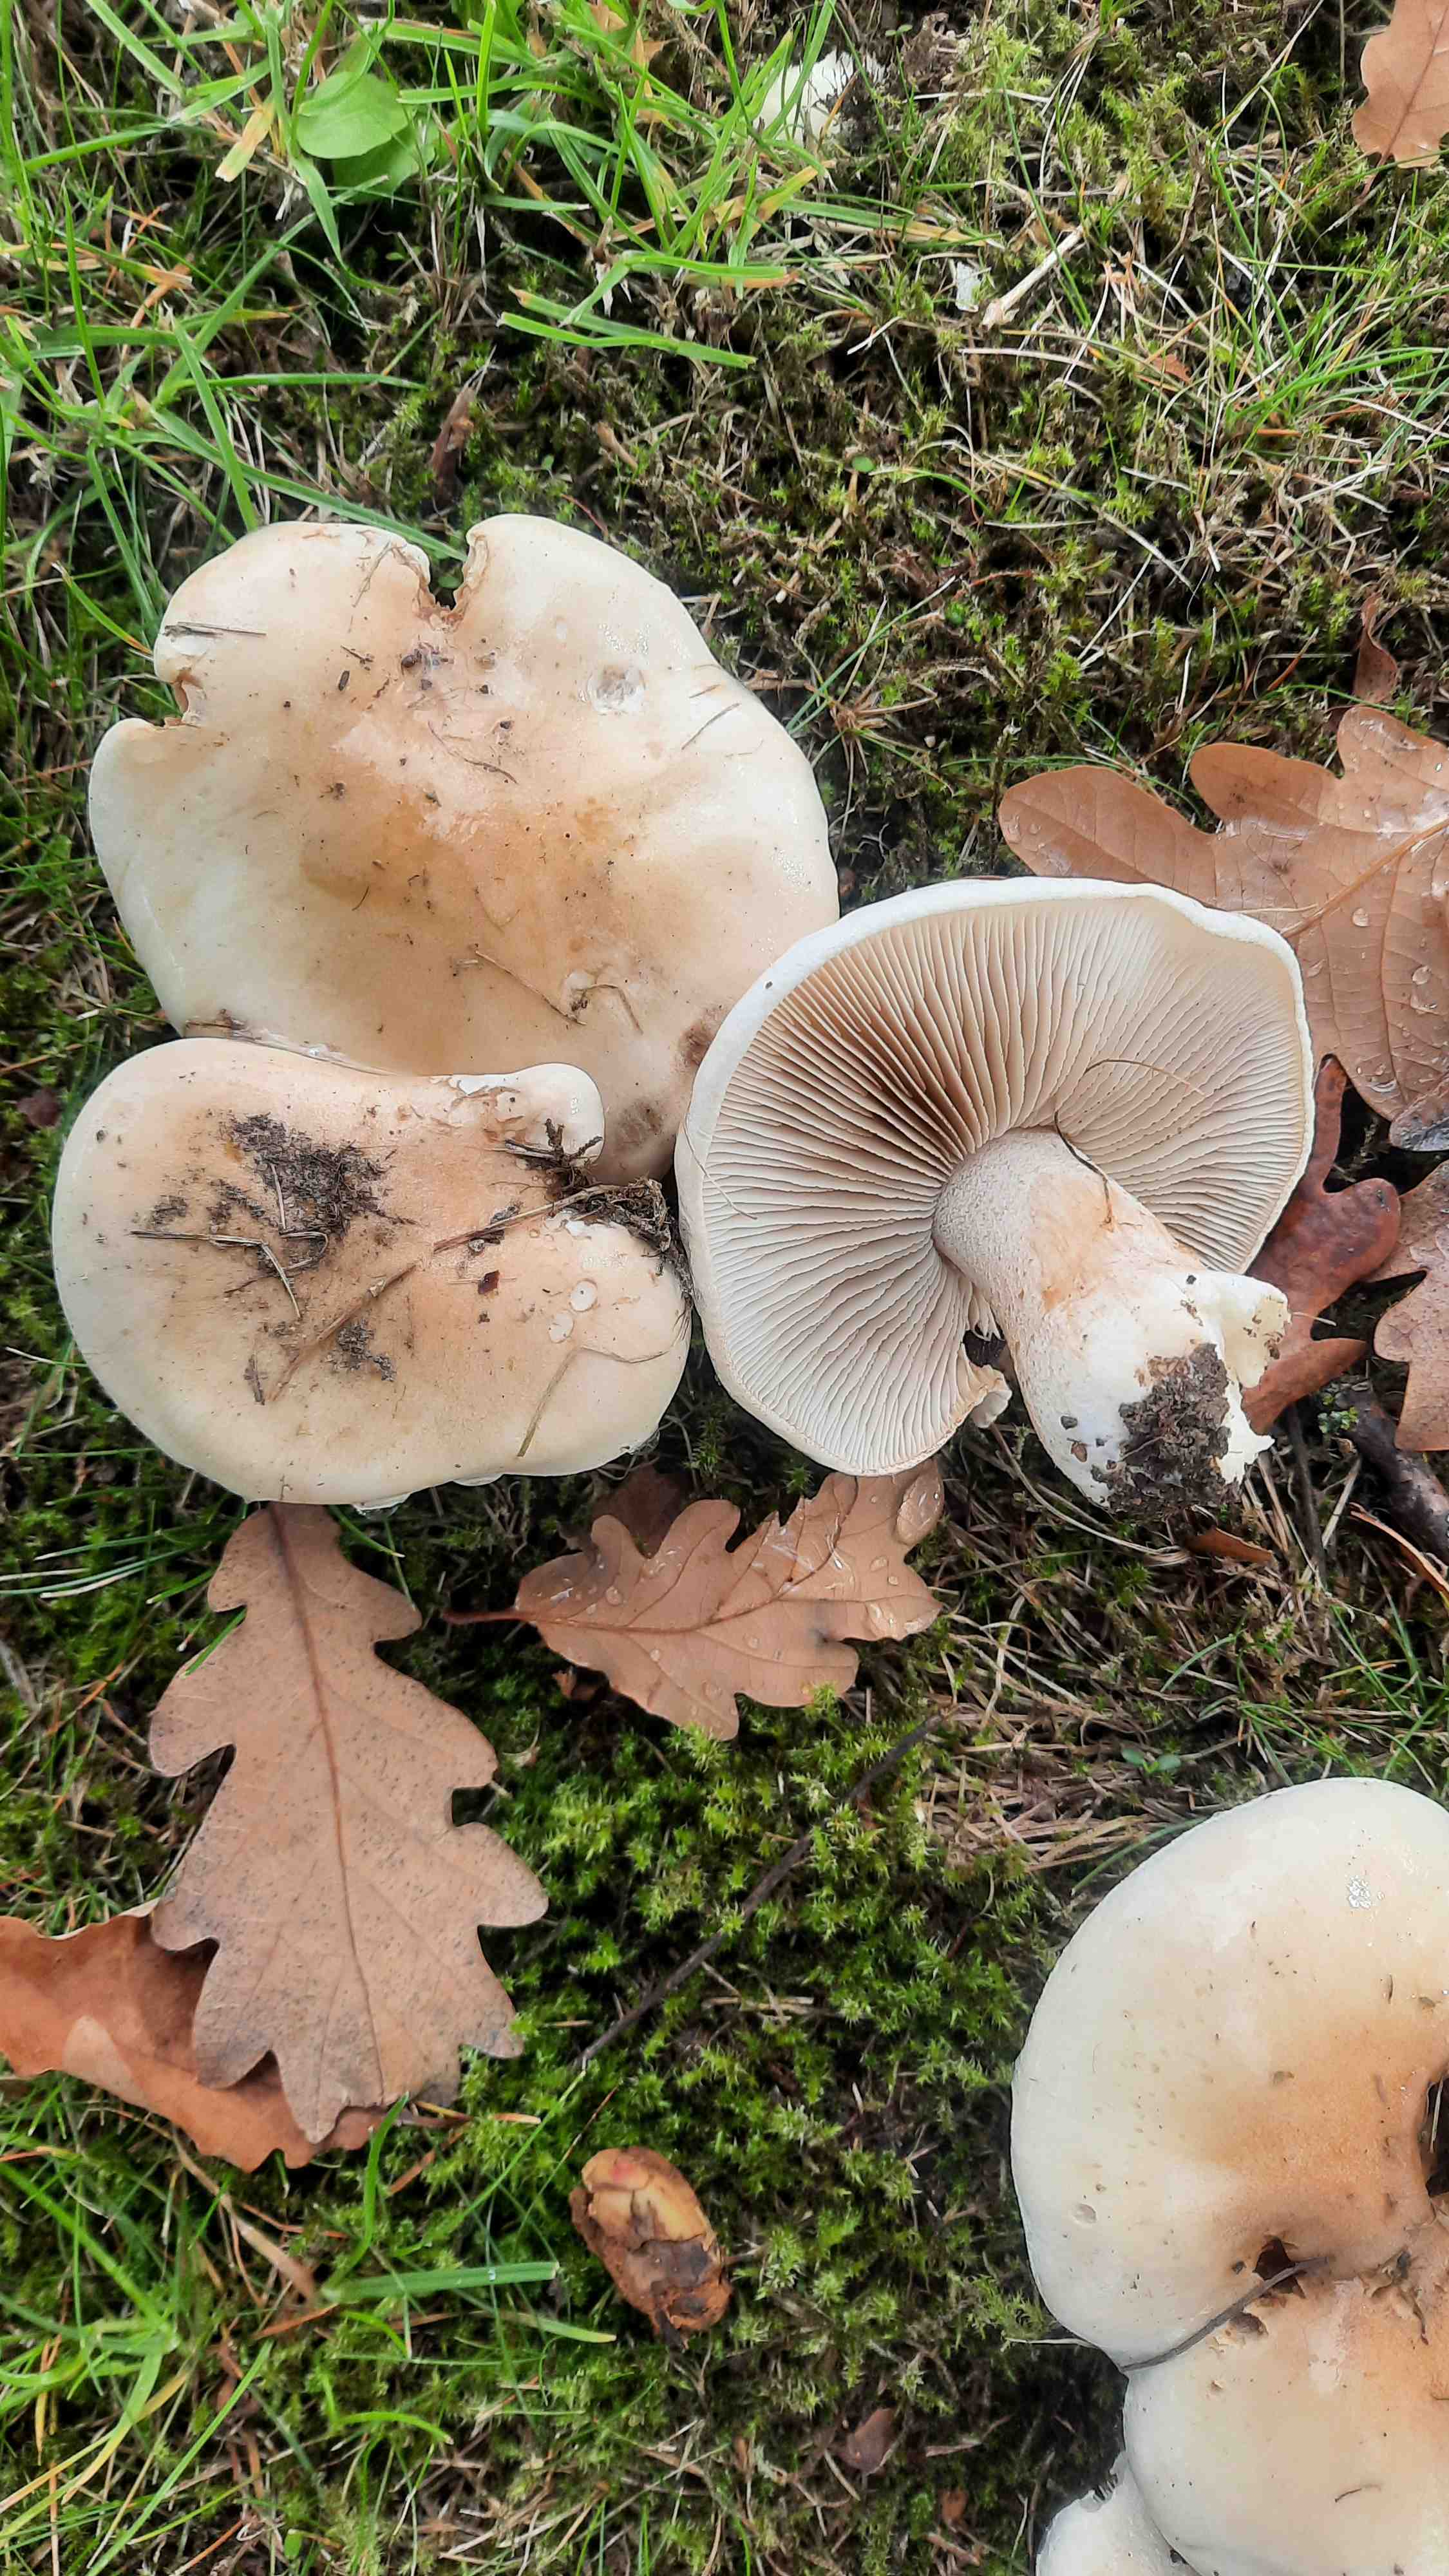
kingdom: Fungi
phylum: Basidiomycota
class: Agaricomycetes
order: Agaricales
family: Hymenogastraceae
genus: Hebeloma
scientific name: Hebeloma
